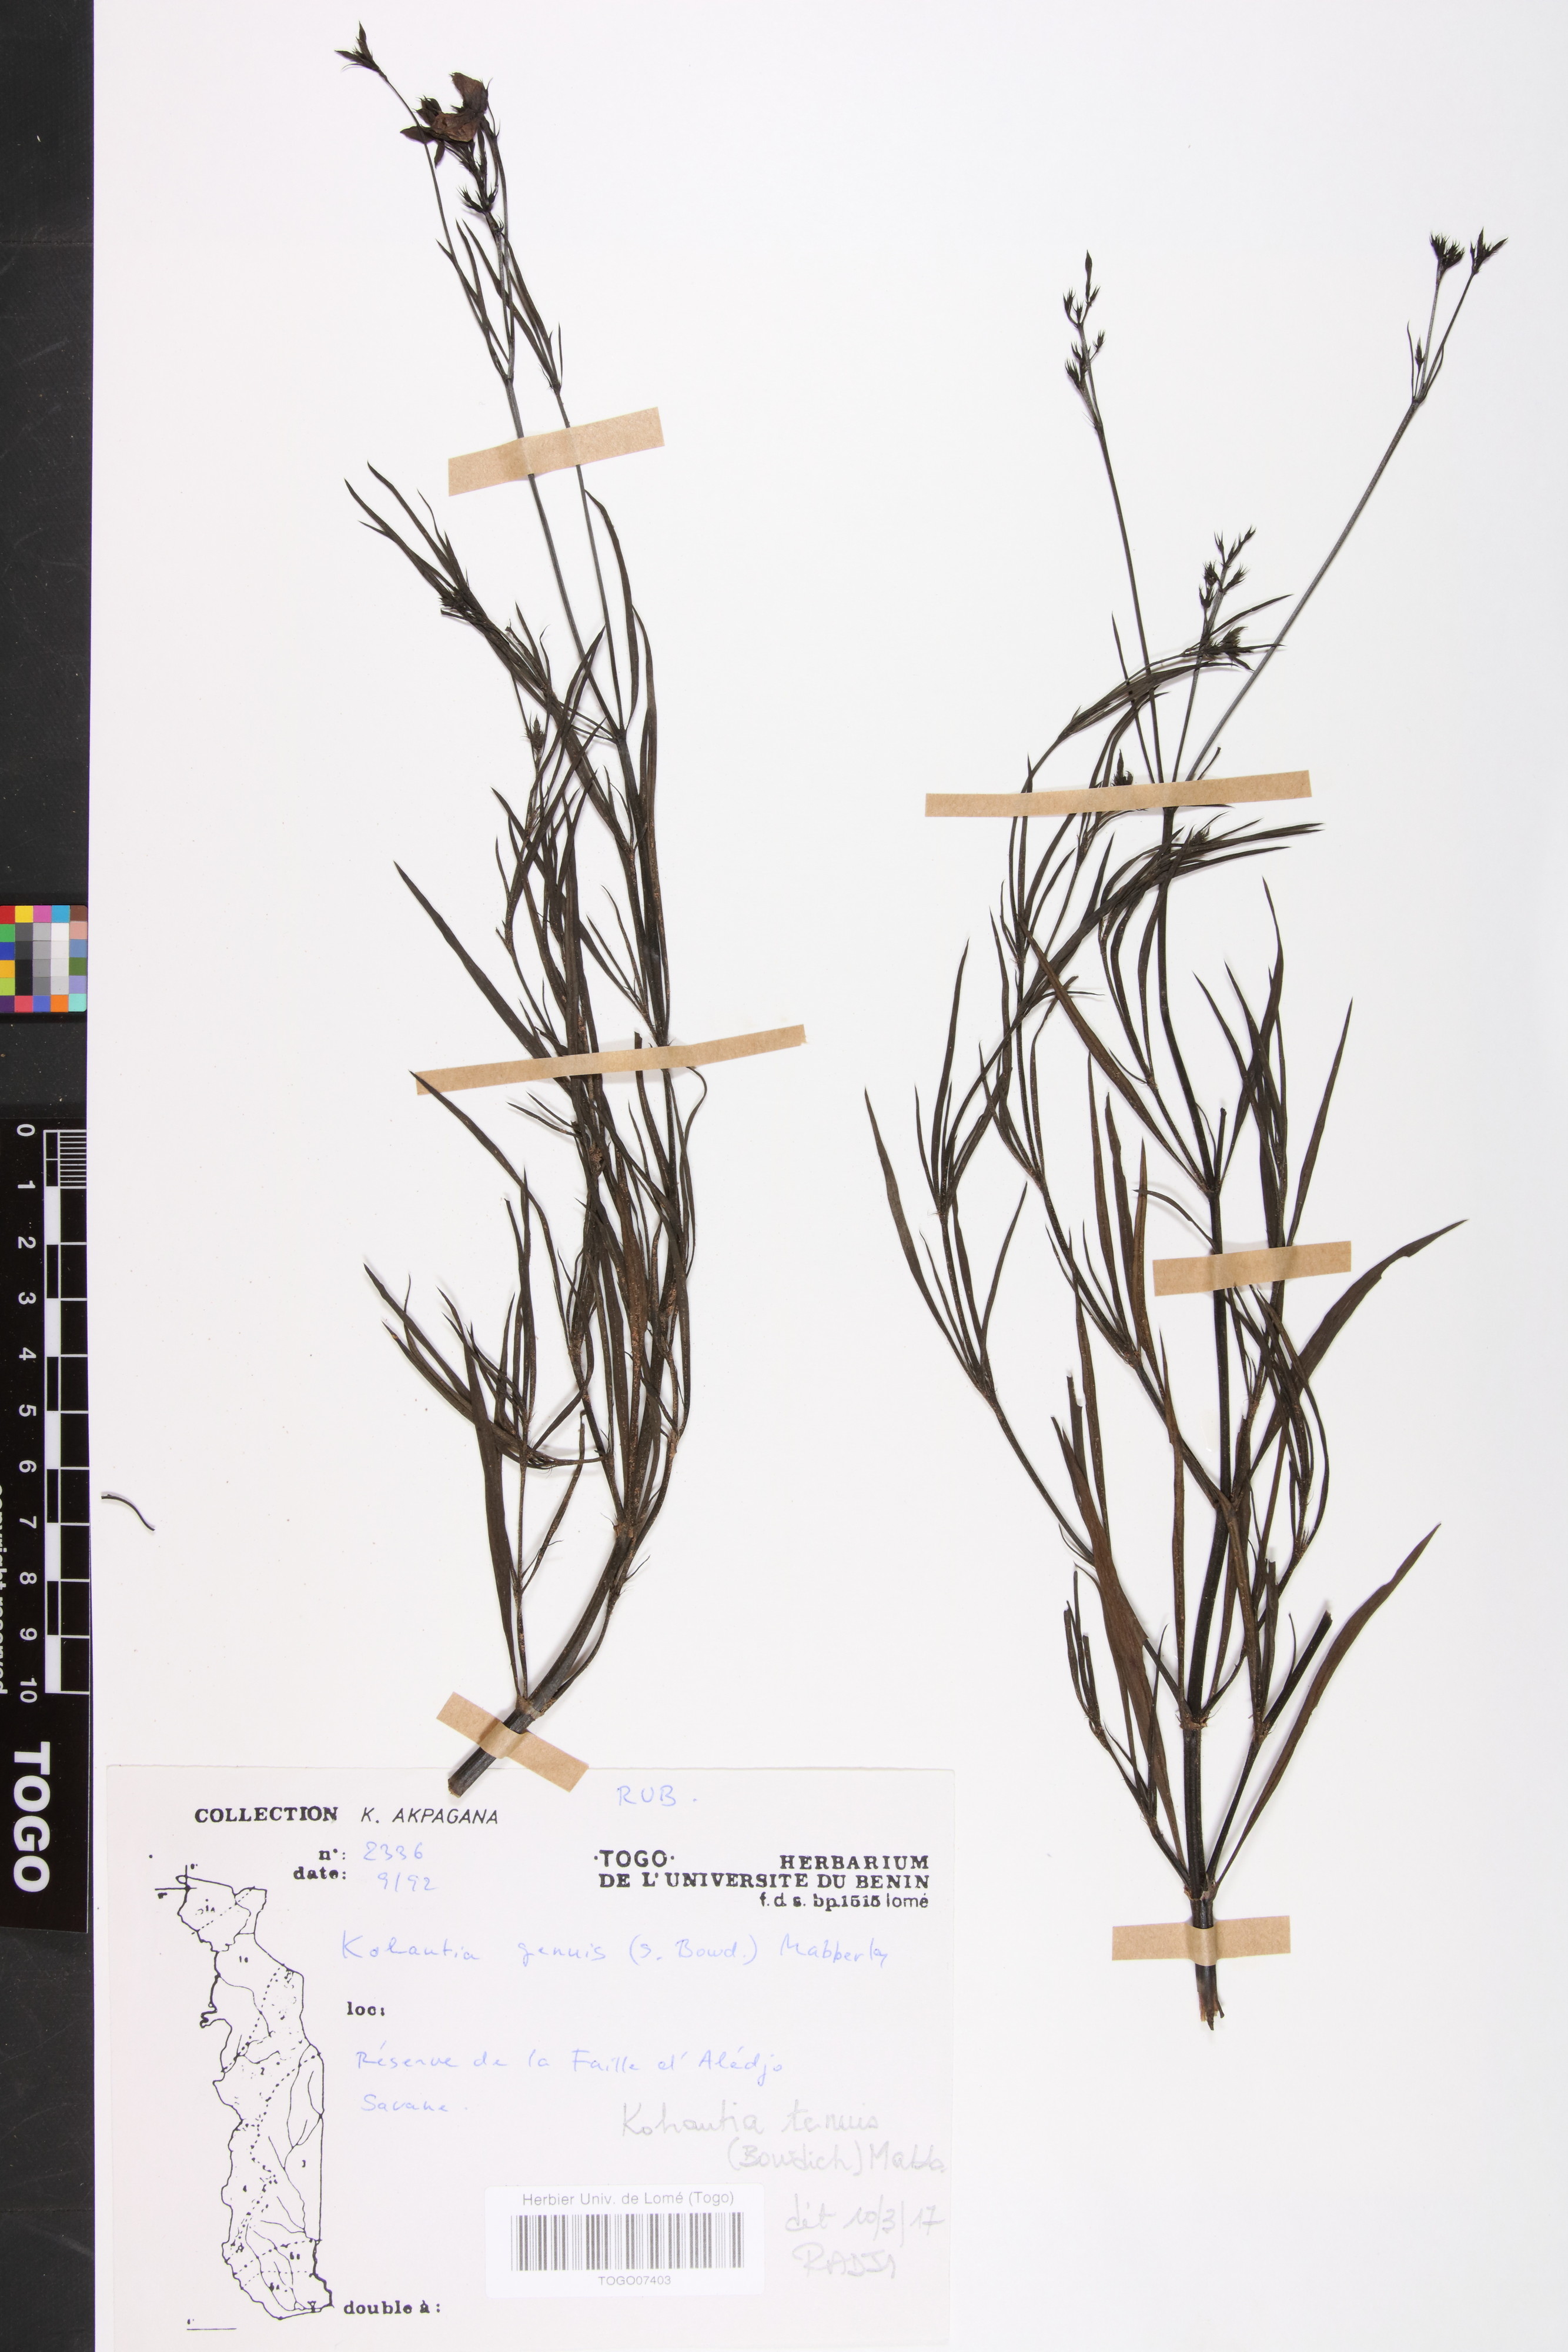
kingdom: Plantae
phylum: Tracheophyta
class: Magnoliopsida
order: Gentianales
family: Rubiaceae
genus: Kohautia
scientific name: Kohautia
